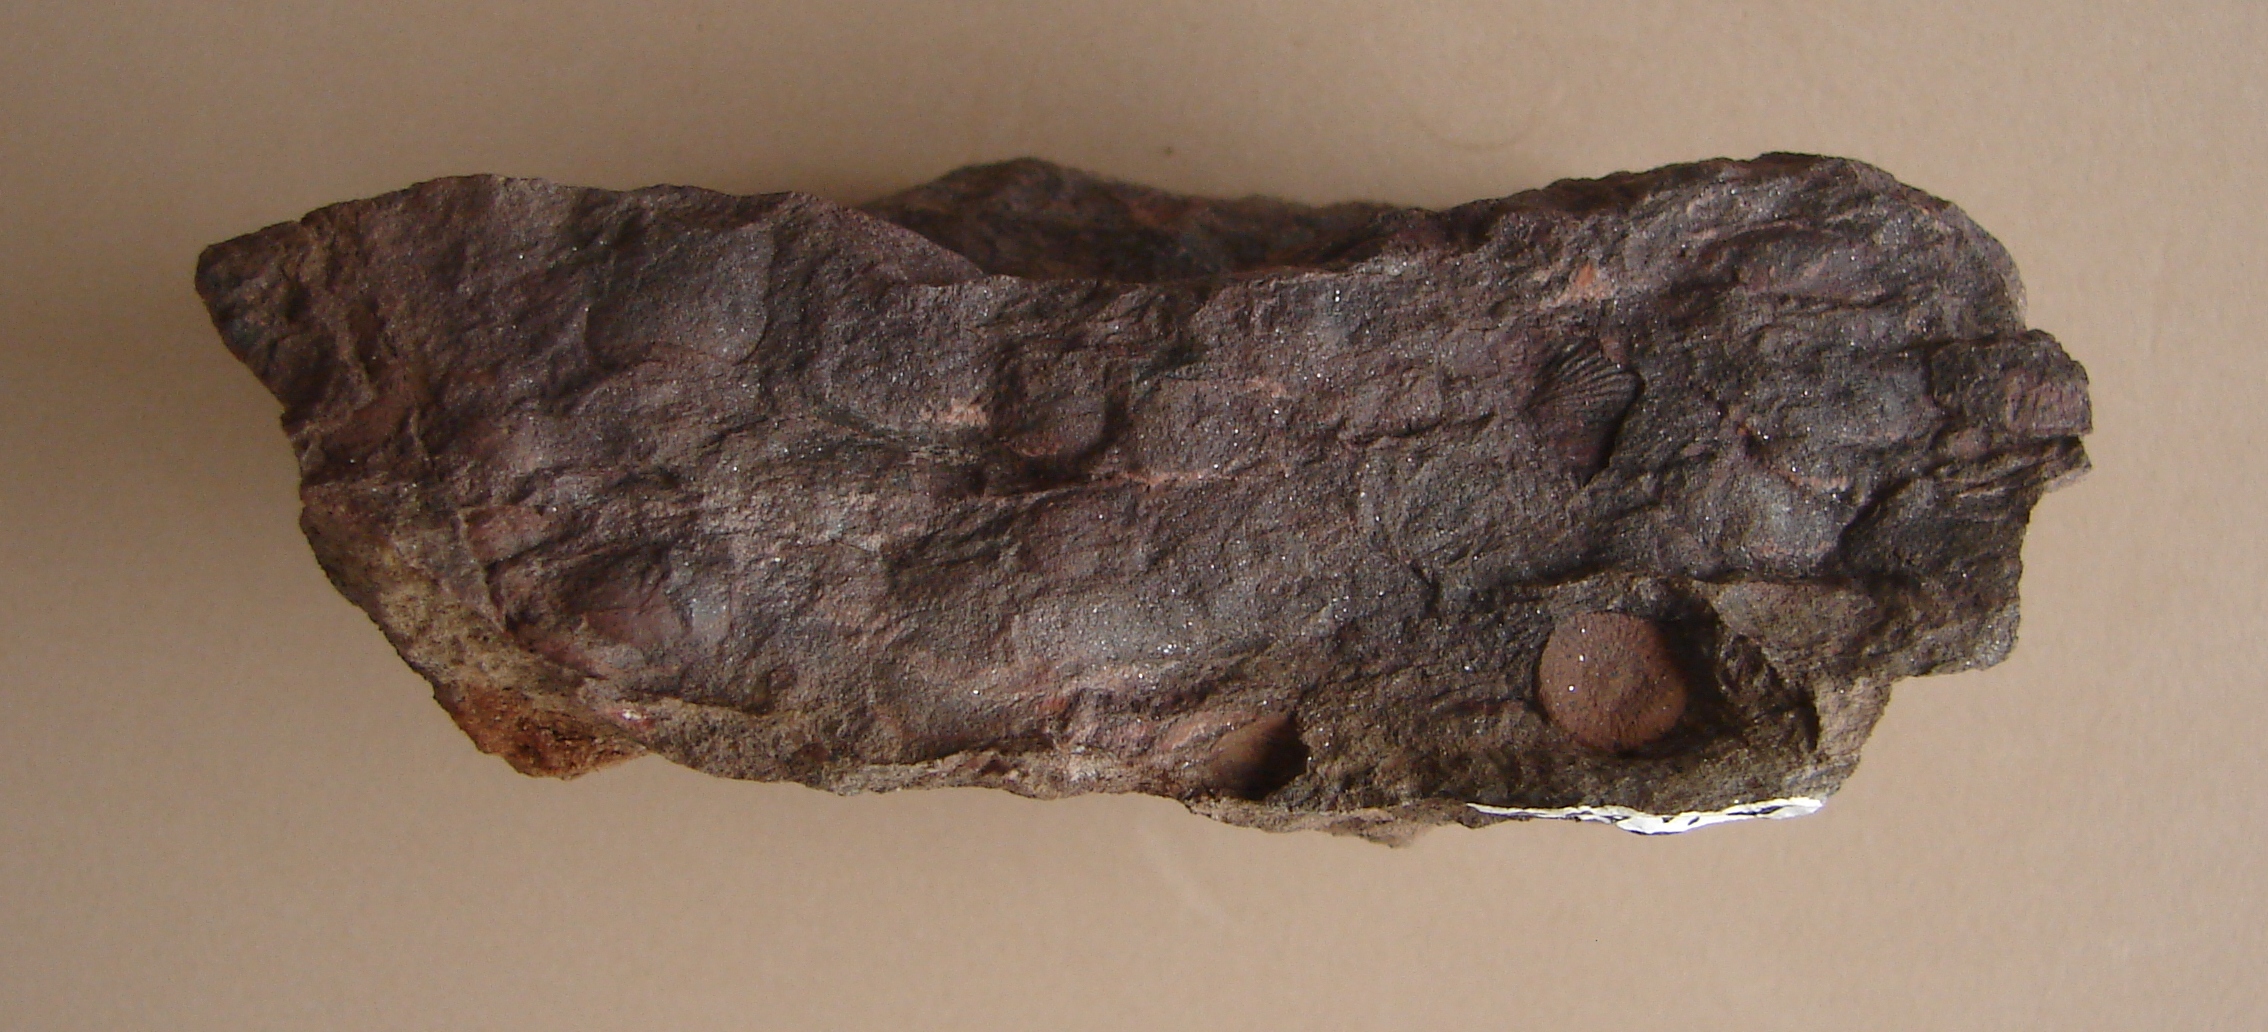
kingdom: Animalia
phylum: Echinodermata
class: Crinoidea
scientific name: Crinoidea
